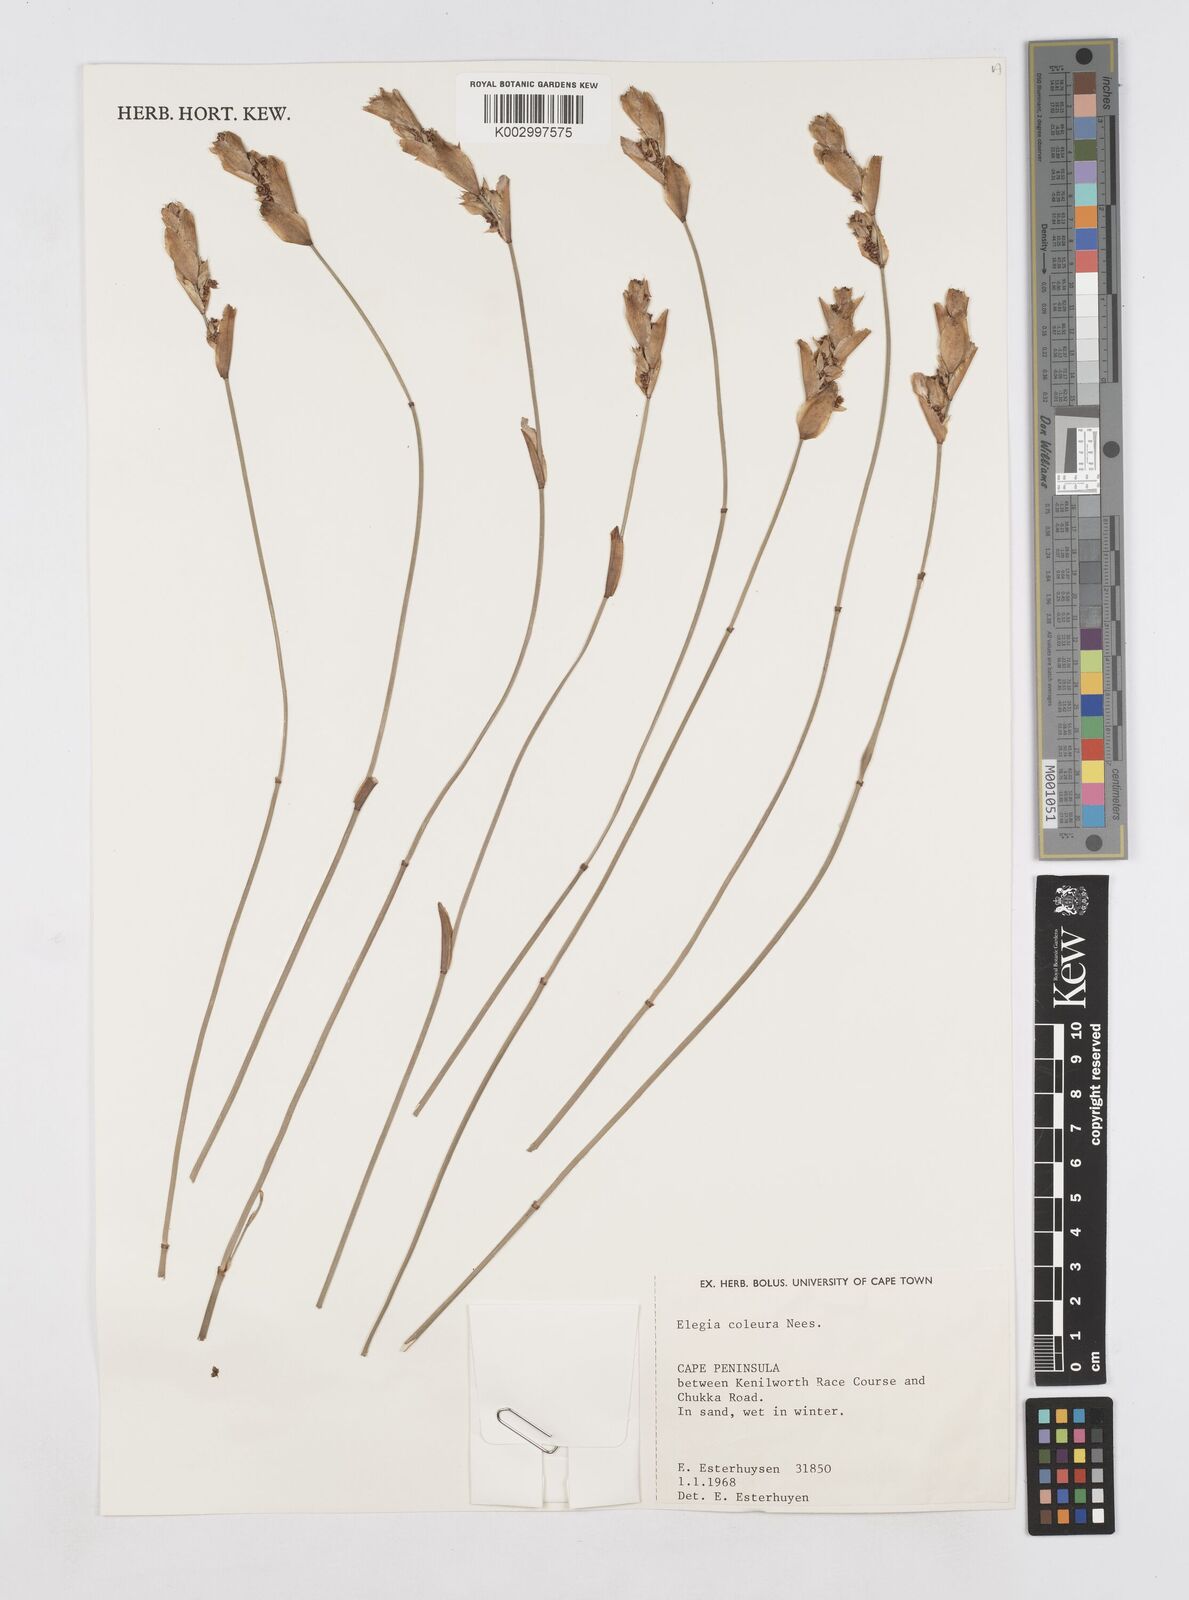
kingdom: Plantae
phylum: Tracheophyta
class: Liliopsida
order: Poales
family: Restionaceae
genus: Elegia
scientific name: Elegia coleura
